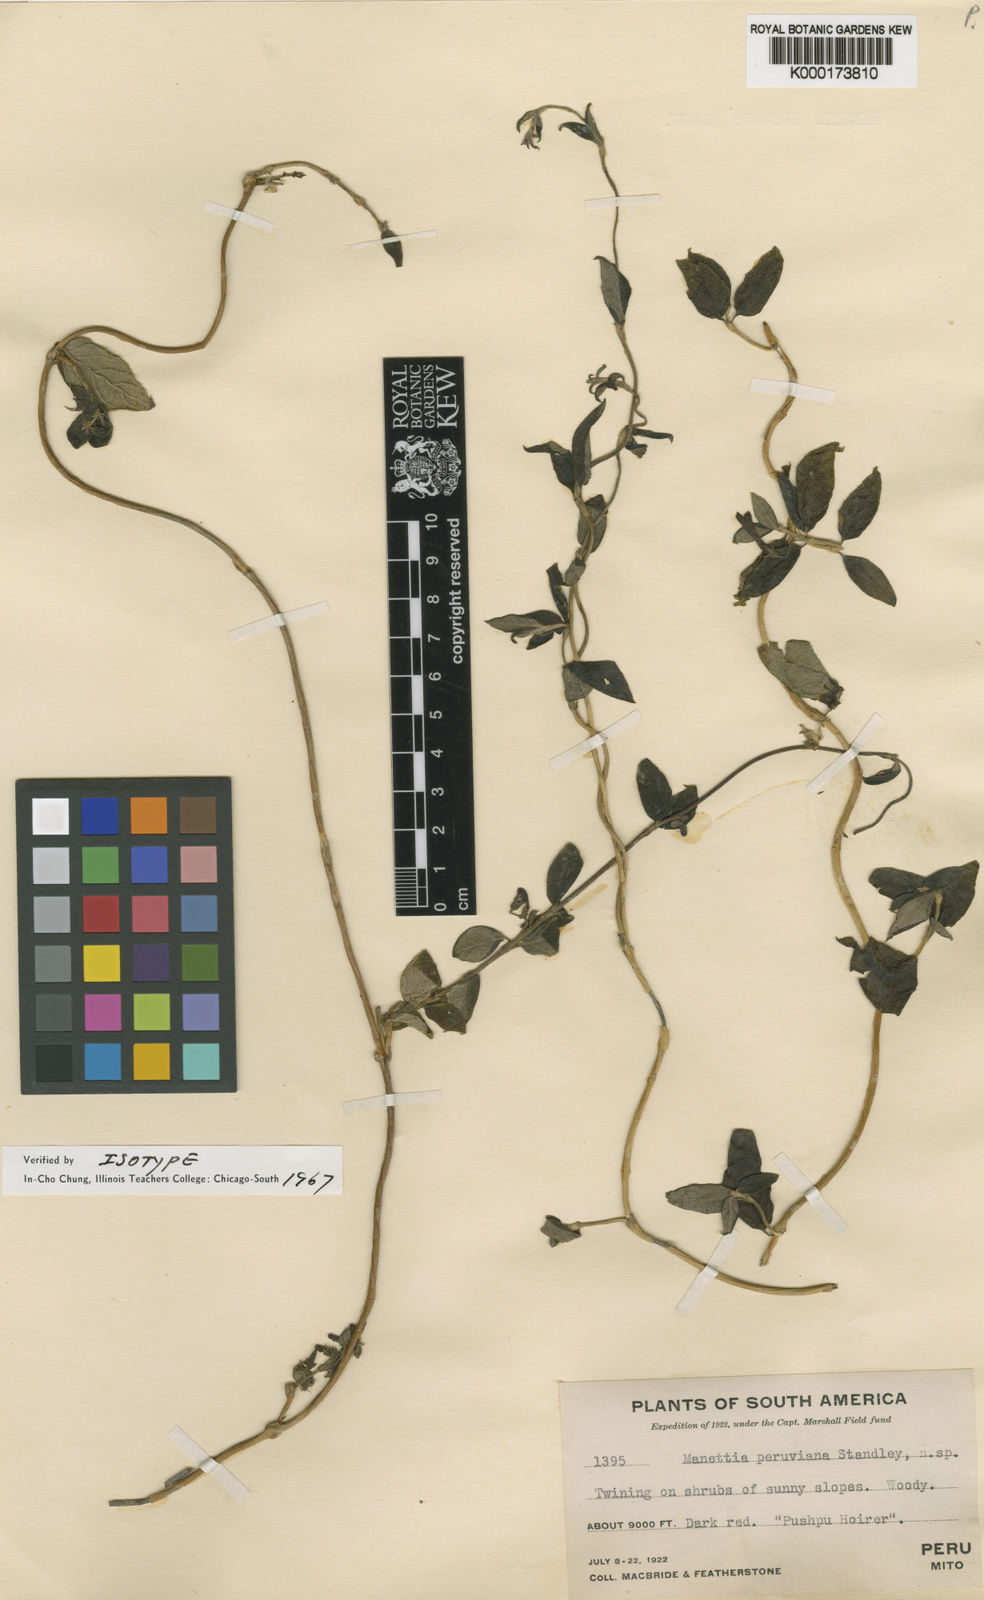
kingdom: Plantae
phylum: Tracheophyta
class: Magnoliopsida
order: Gentianales
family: Rubiaceae
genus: Manettia
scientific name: Manettia peruviana
